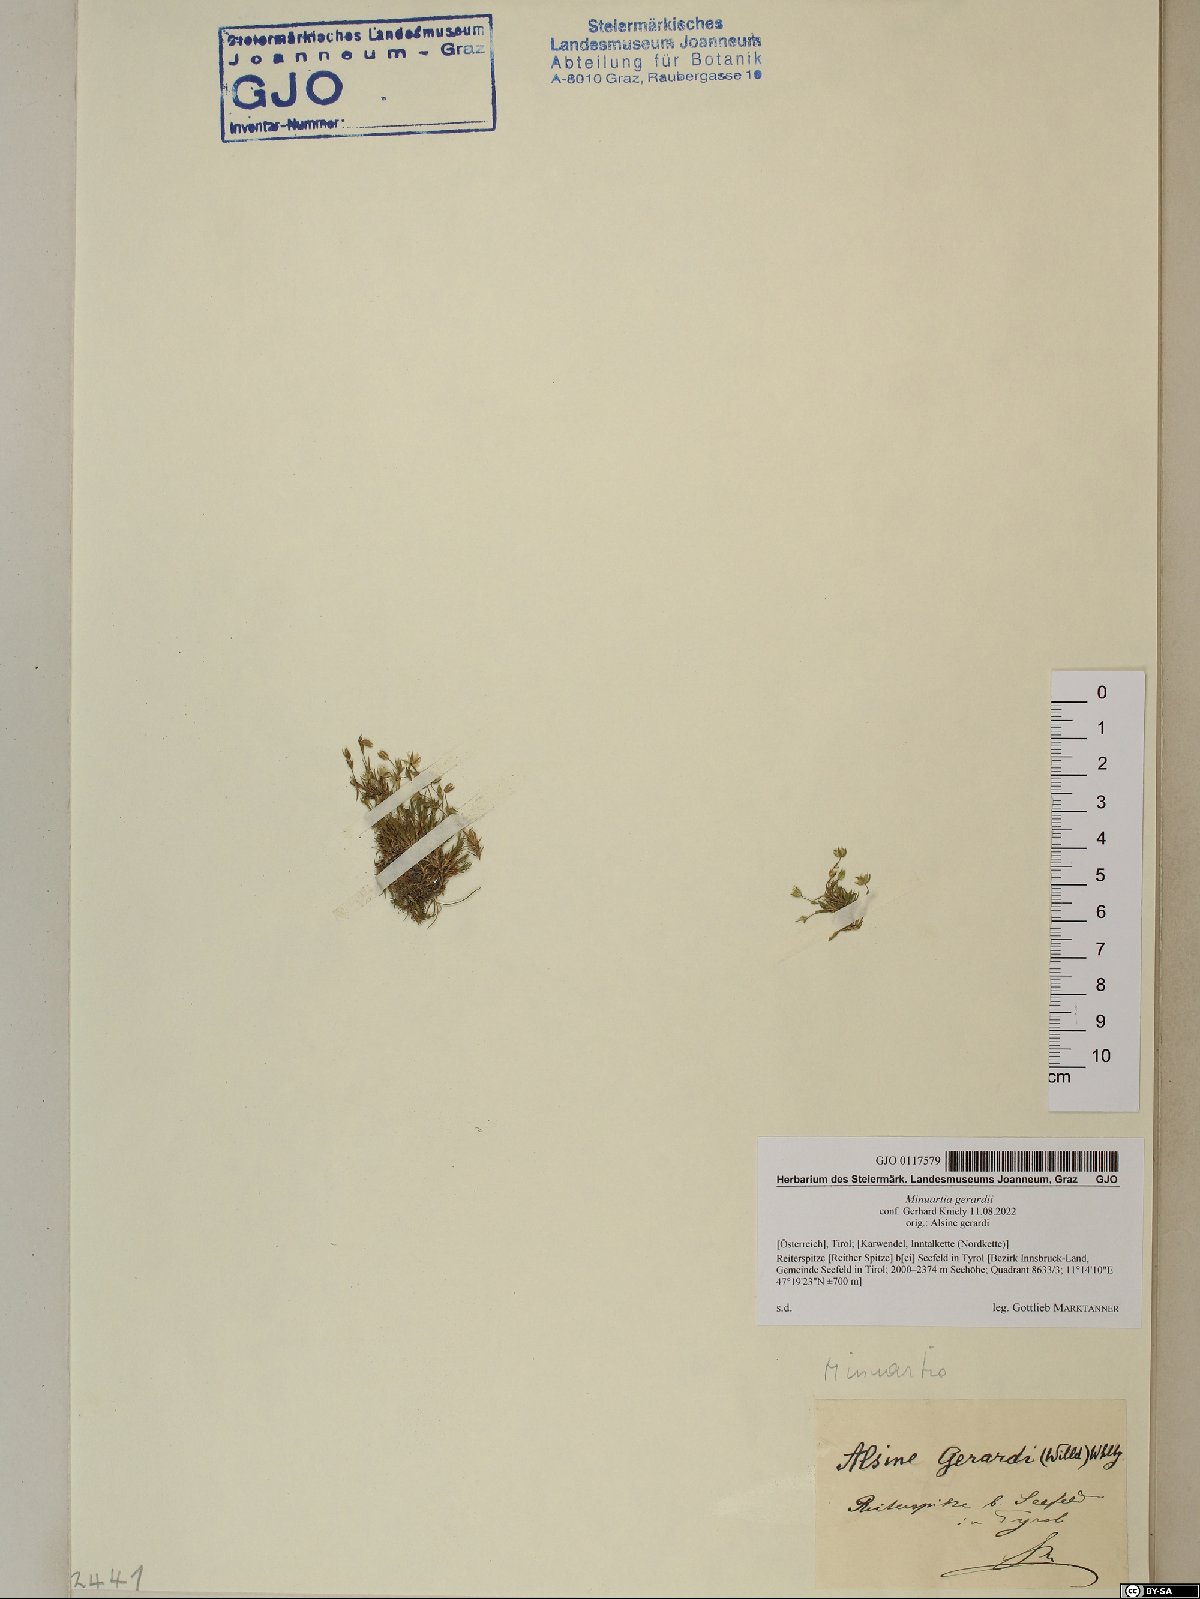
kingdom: Plantae
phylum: Tracheophyta
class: Magnoliopsida
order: Caryophyllales
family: Caryophyllaceae
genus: Sabulina
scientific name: Sabulina verna
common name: Spring sandwort
